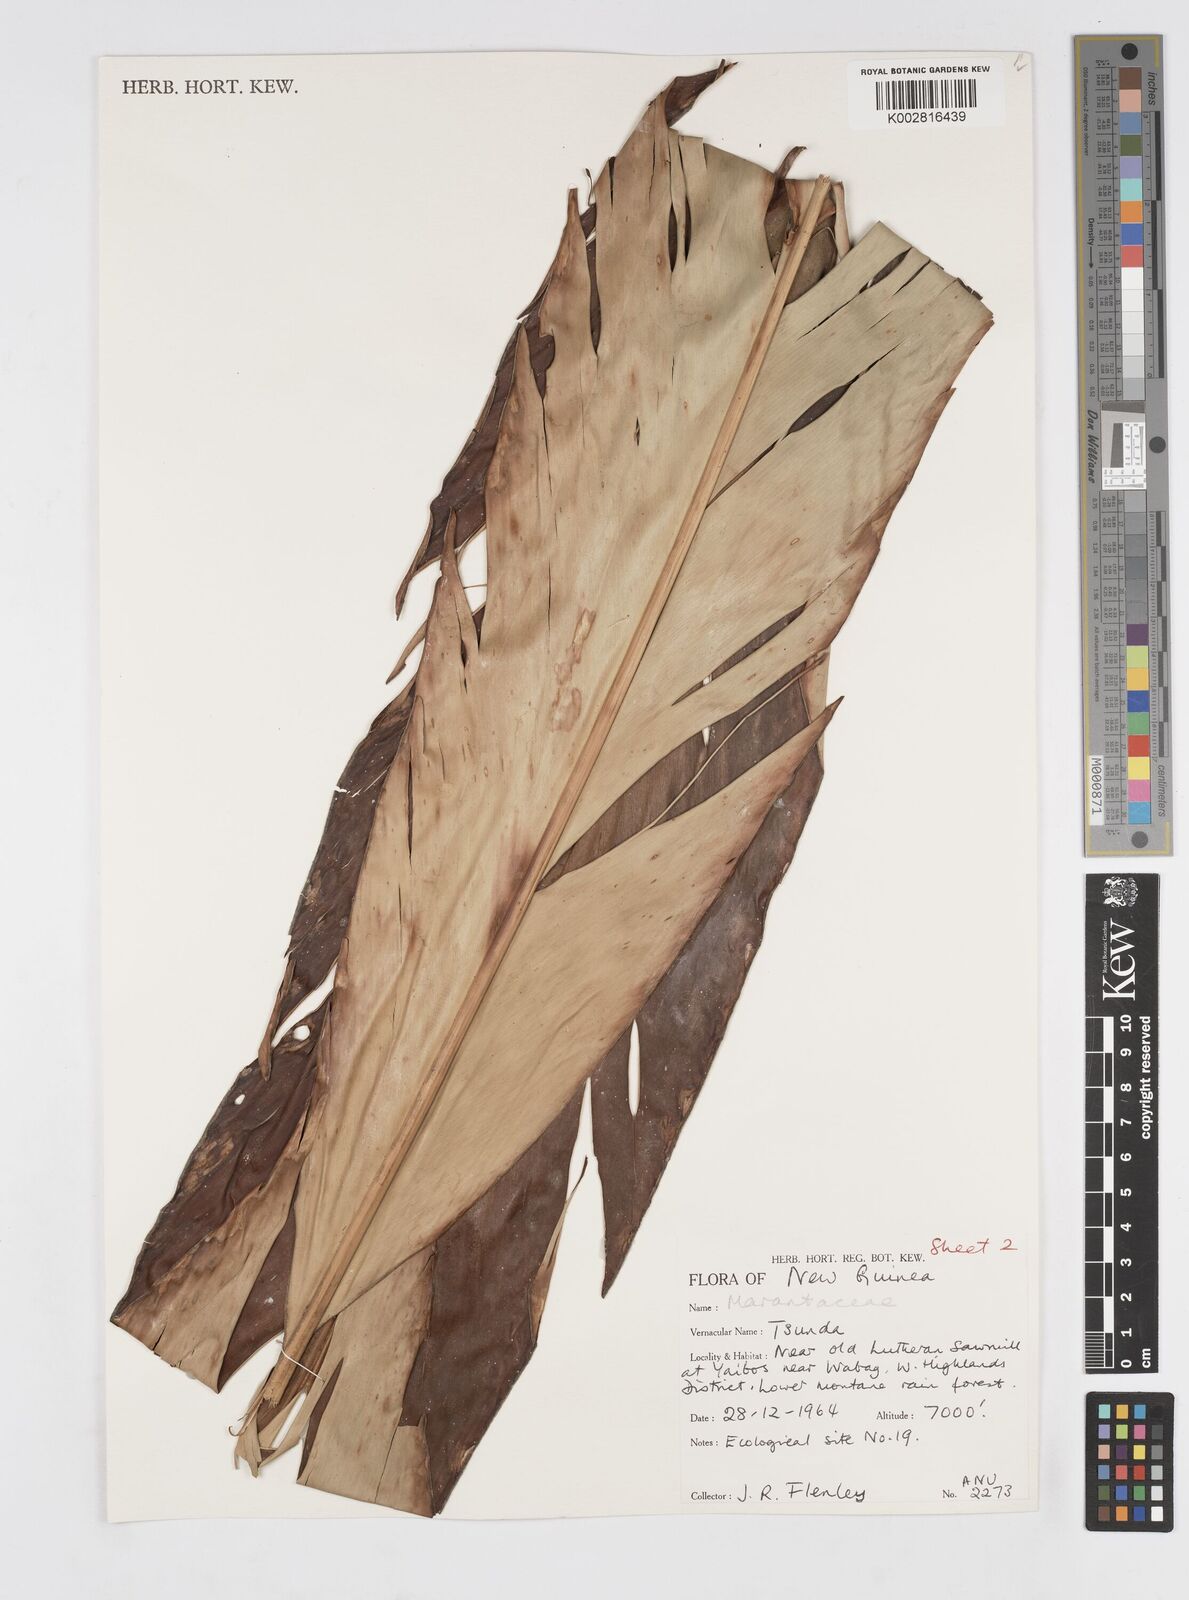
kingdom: Plantae
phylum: Tracheophyta
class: Liliopsida
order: Zingiberales
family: Zingiberaceae
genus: Alpinia
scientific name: Alpinia
